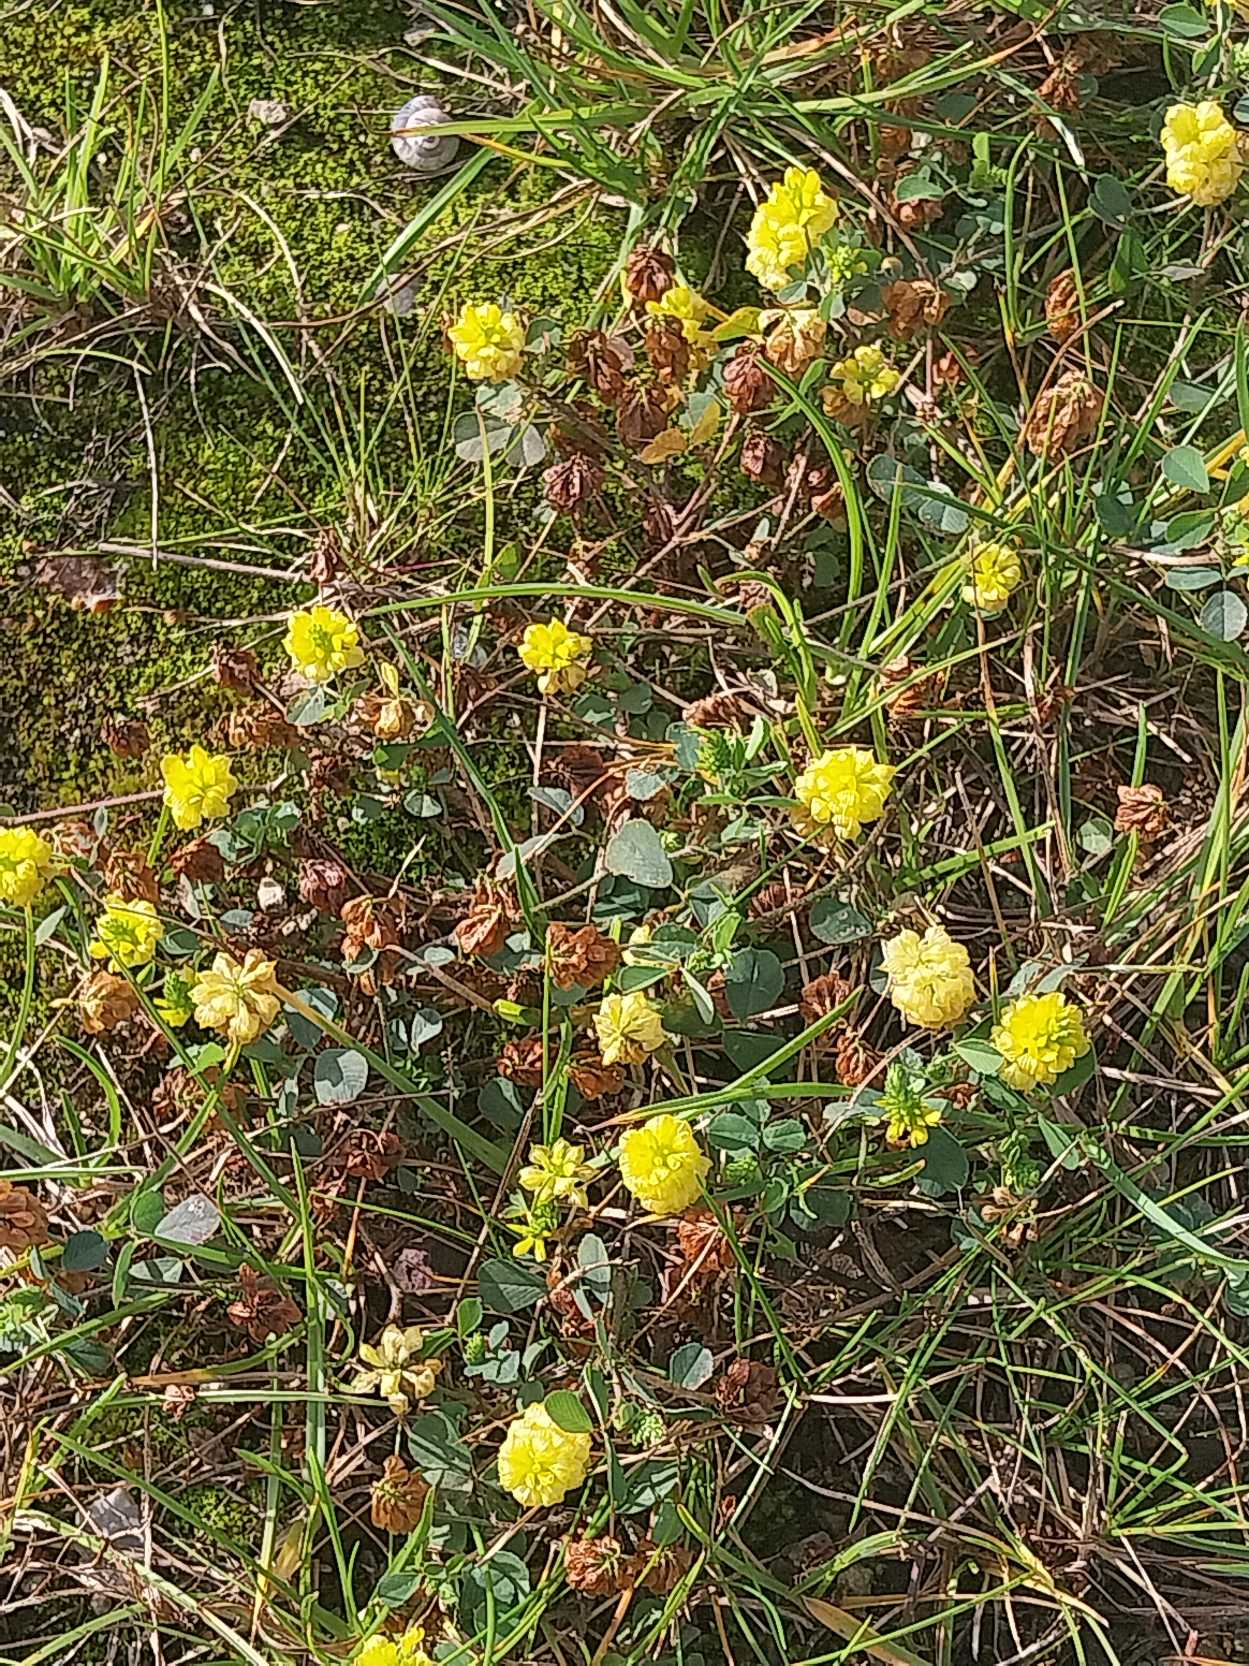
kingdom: Plantae
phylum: Tracheophyta
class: Magnoliopsida
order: Fabales
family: Fabaceae
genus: Trifolium
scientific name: Trifolium campestre
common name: Gul kløver
